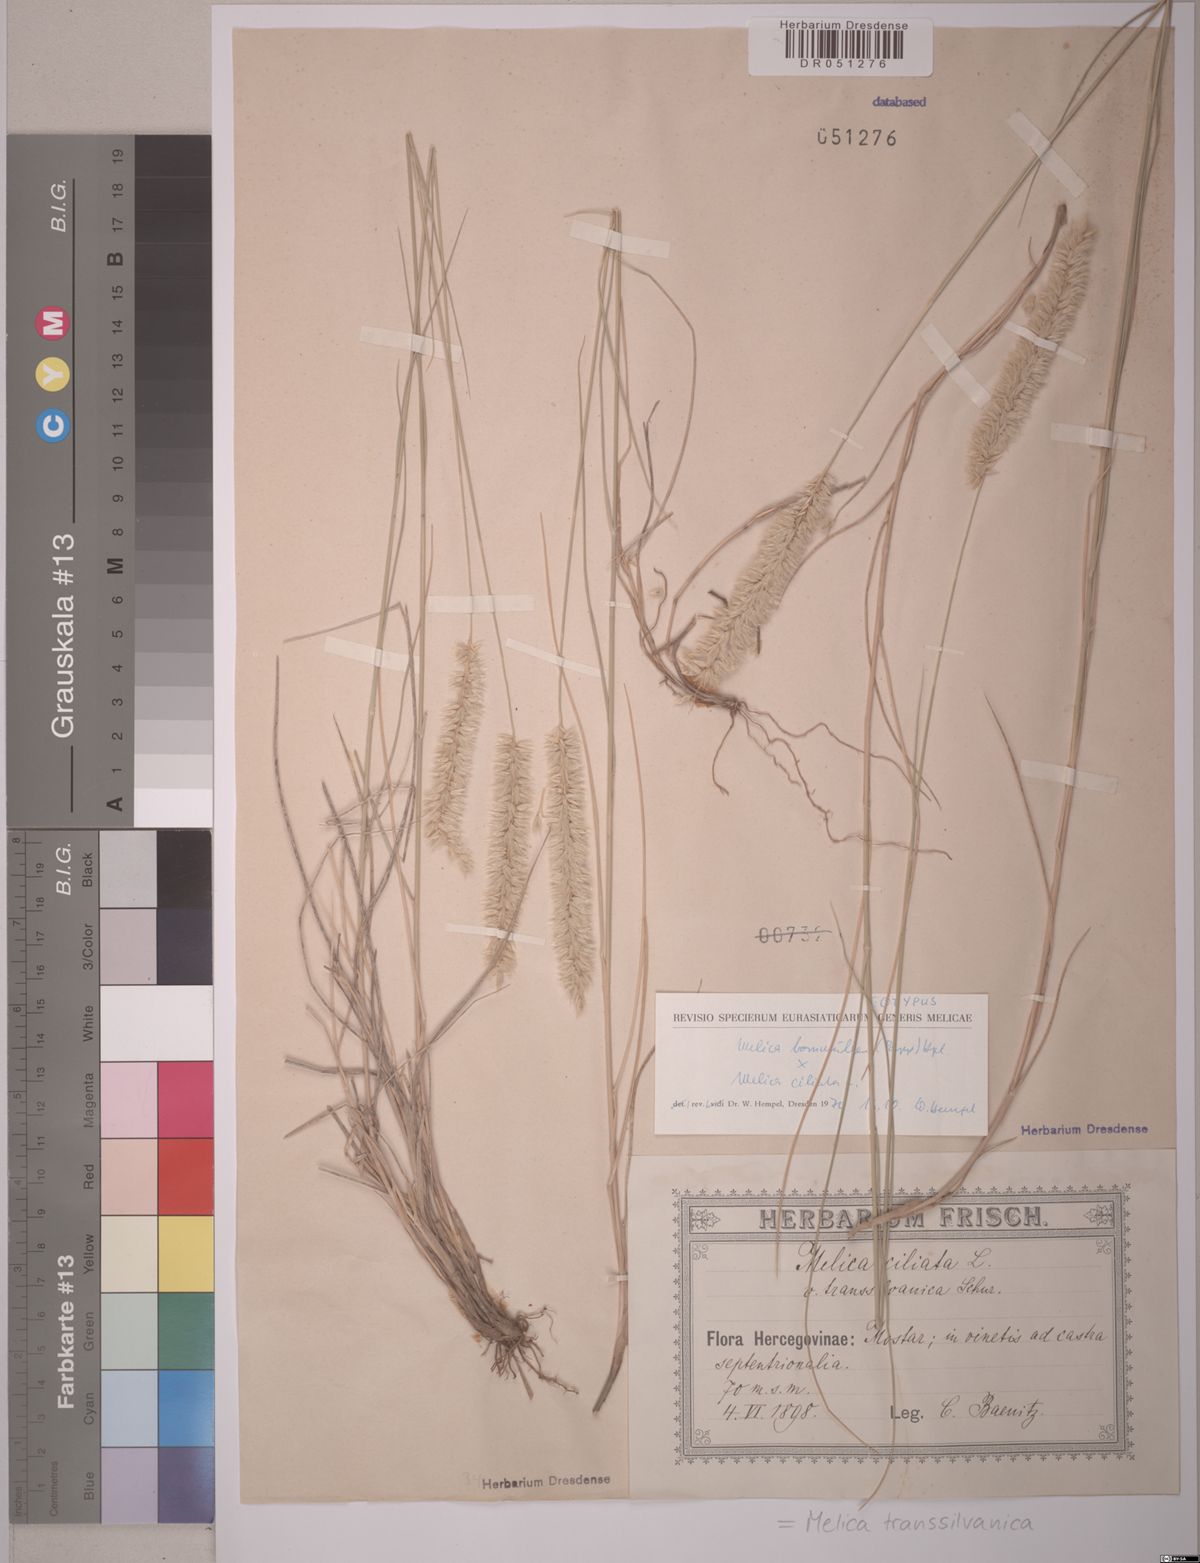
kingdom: Plantae
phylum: Tracheophyta
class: Liliopsida
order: Poales
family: Poaceae
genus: Melica
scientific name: Melica transsilvanica
